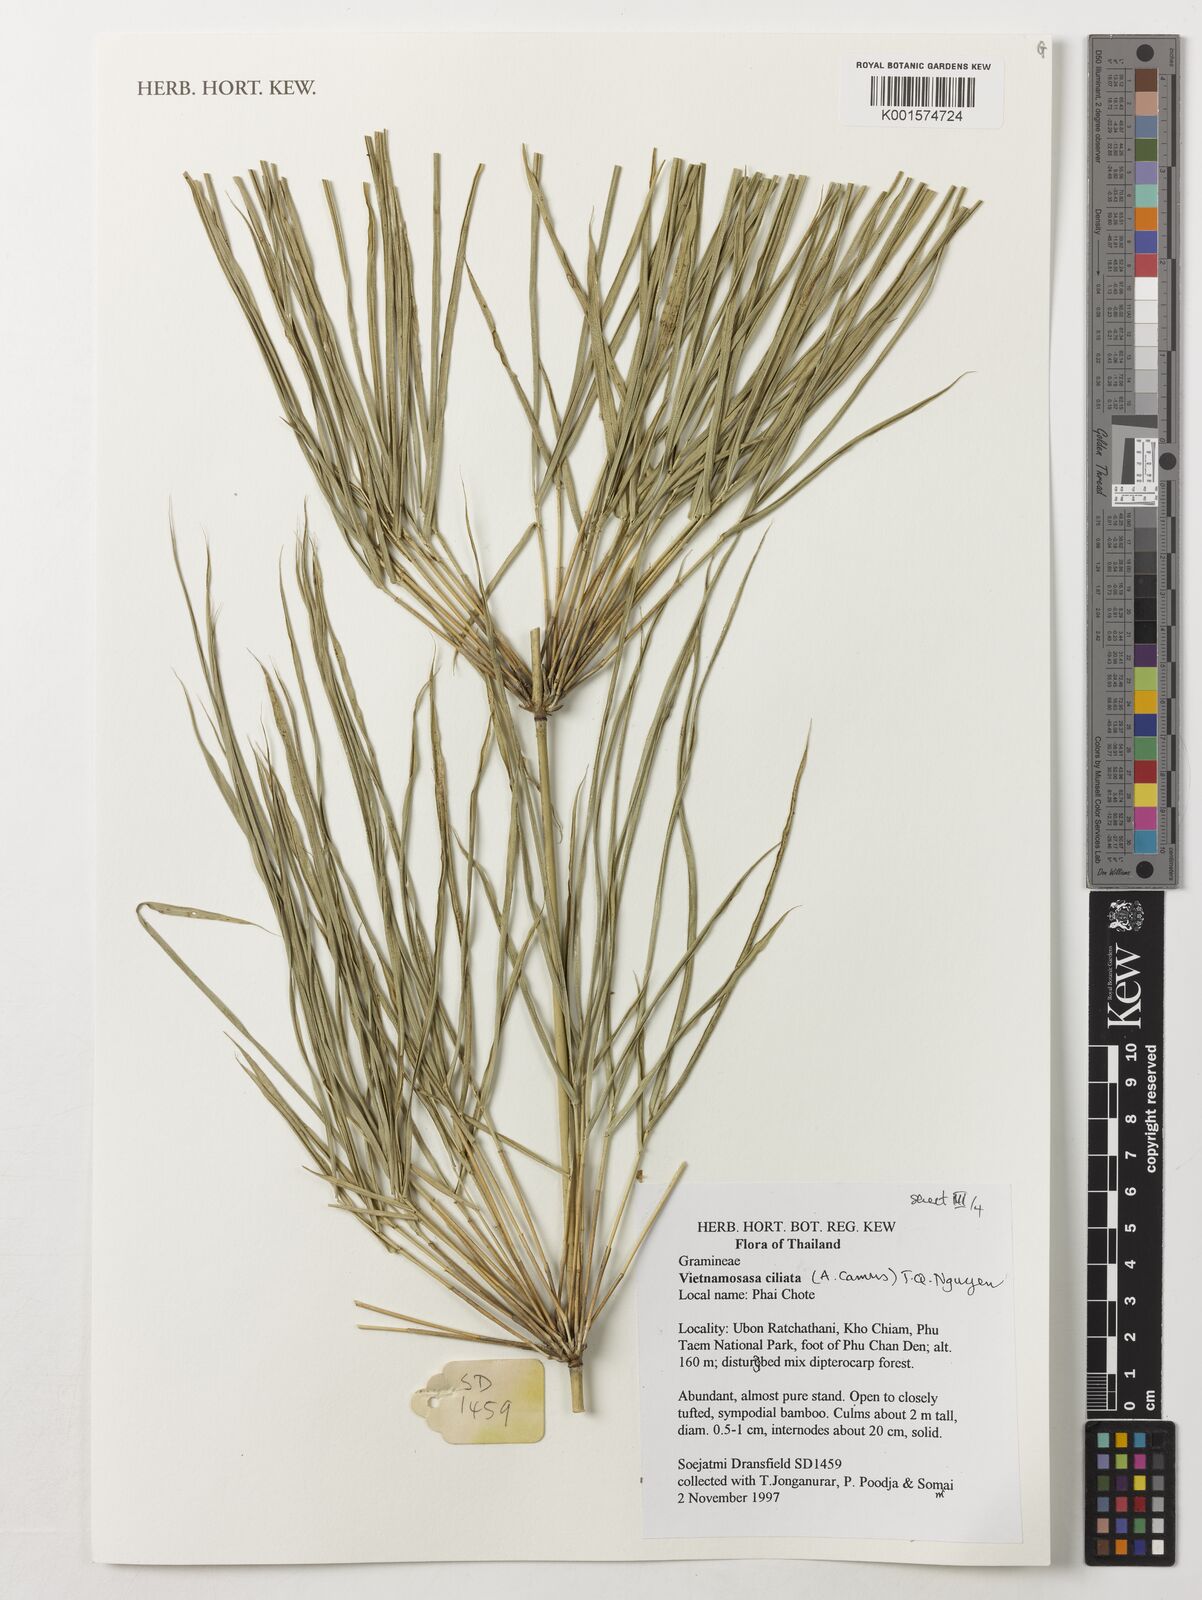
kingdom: Plantae
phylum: Tracheophyta
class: Liliopsida
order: Poales
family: Poaceae
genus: Vietnamosasa
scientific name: Vietnamosasa ciliata
